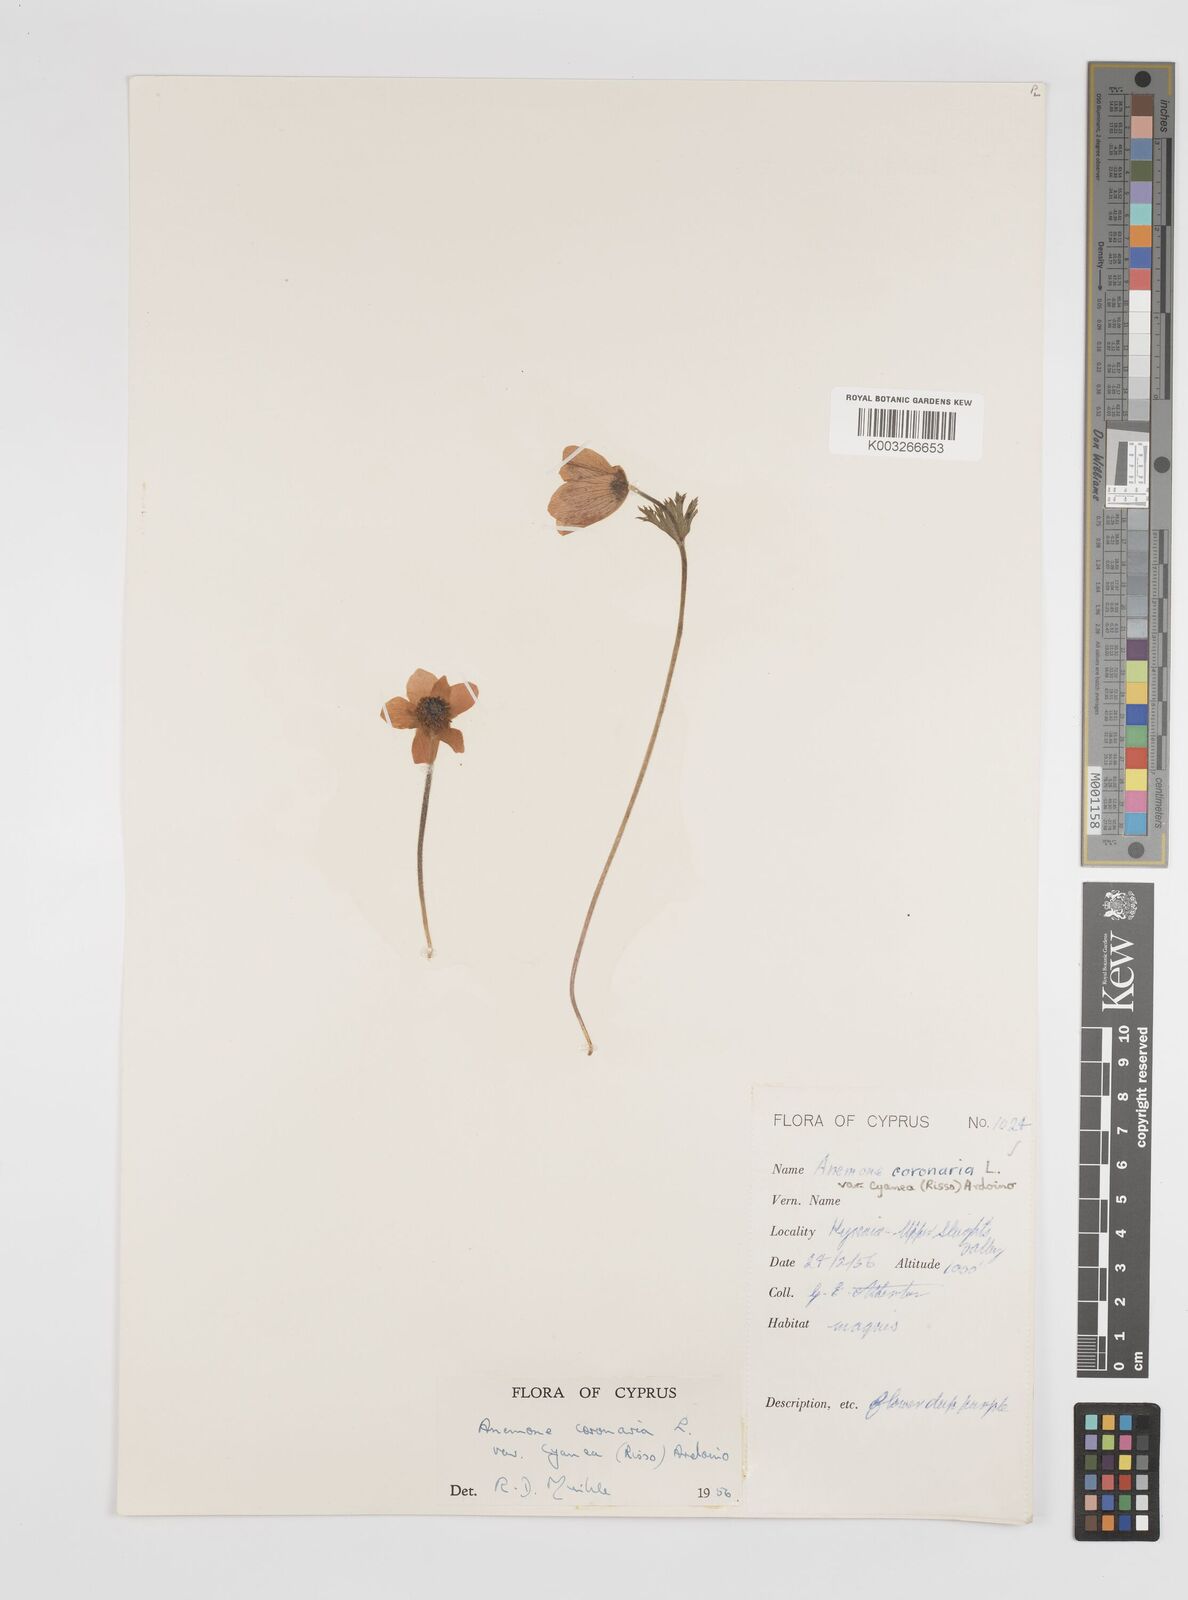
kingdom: Plantae
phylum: Tracheophyta
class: Magnoliopsida
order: Ranunculales
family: Ranunculaceae
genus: Anemone
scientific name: Anemone coronaria
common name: Poppy anemone
